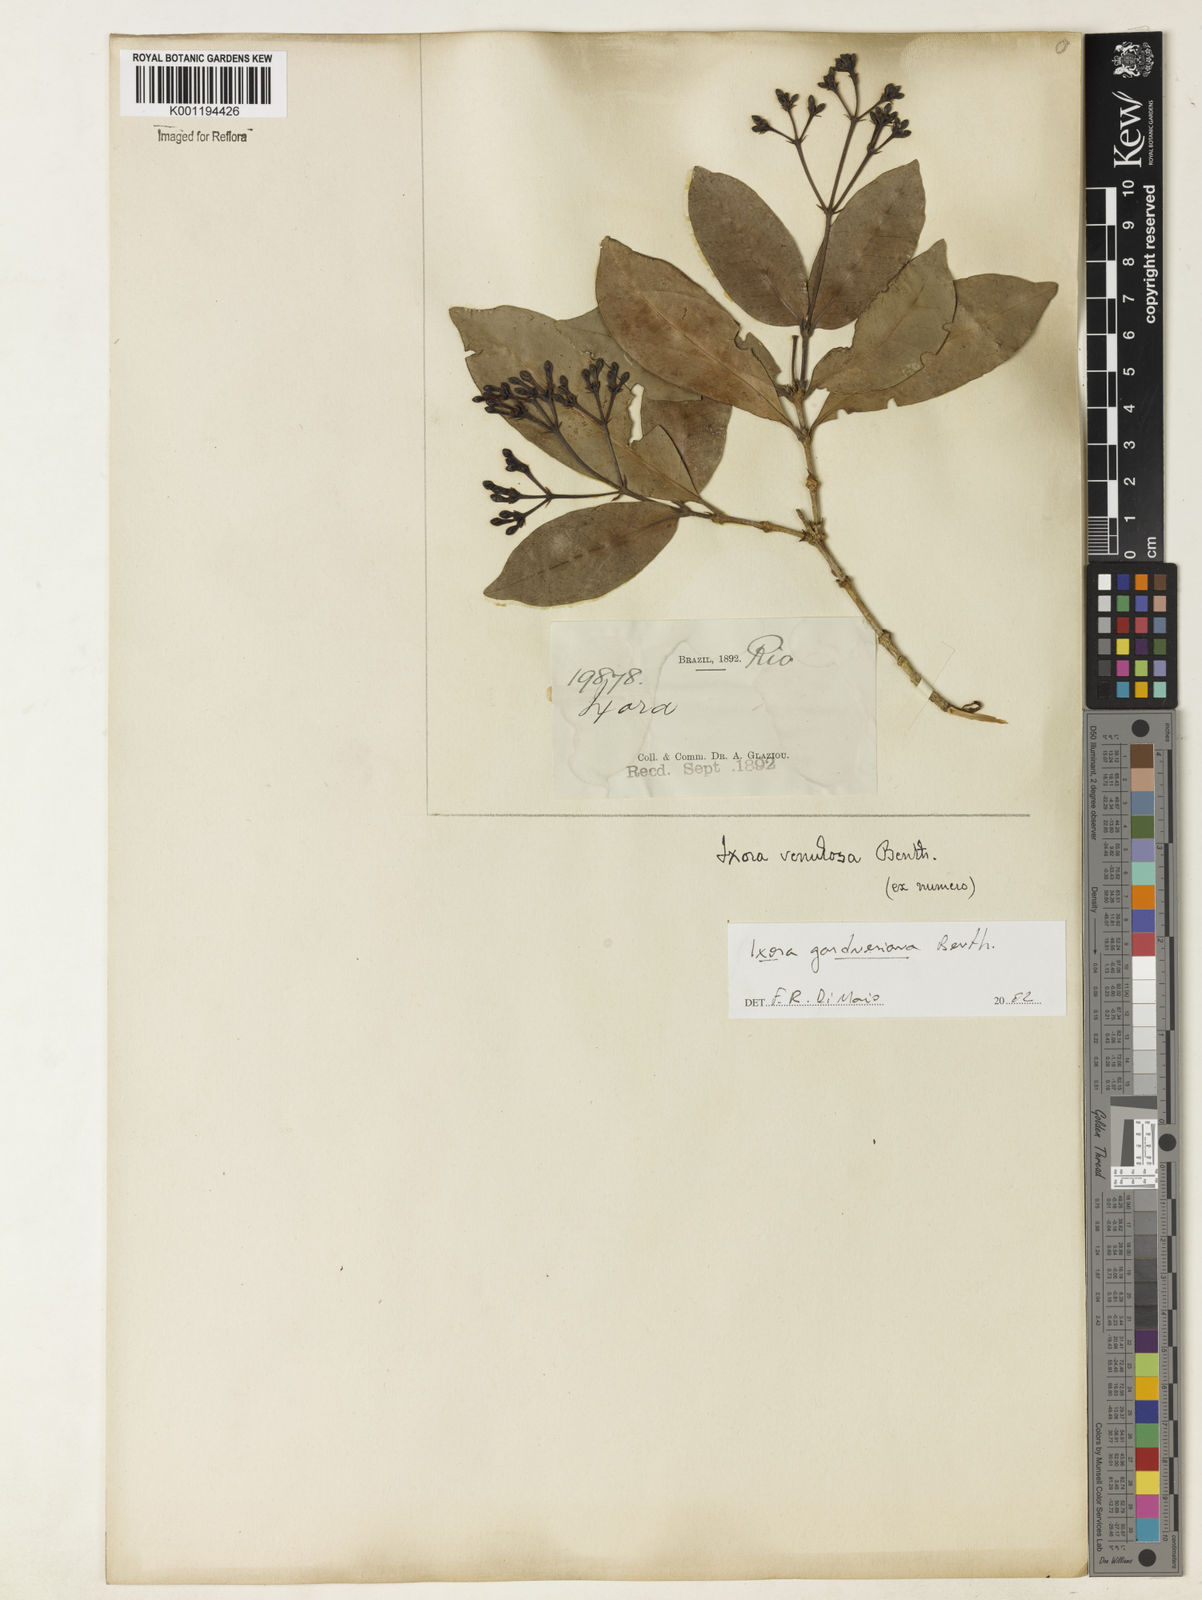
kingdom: Plantae
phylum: Tracheophyta
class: Magnoliopsida
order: Gentianales
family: Rubiaceae
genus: Ixora
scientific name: Ixora gardneriana
